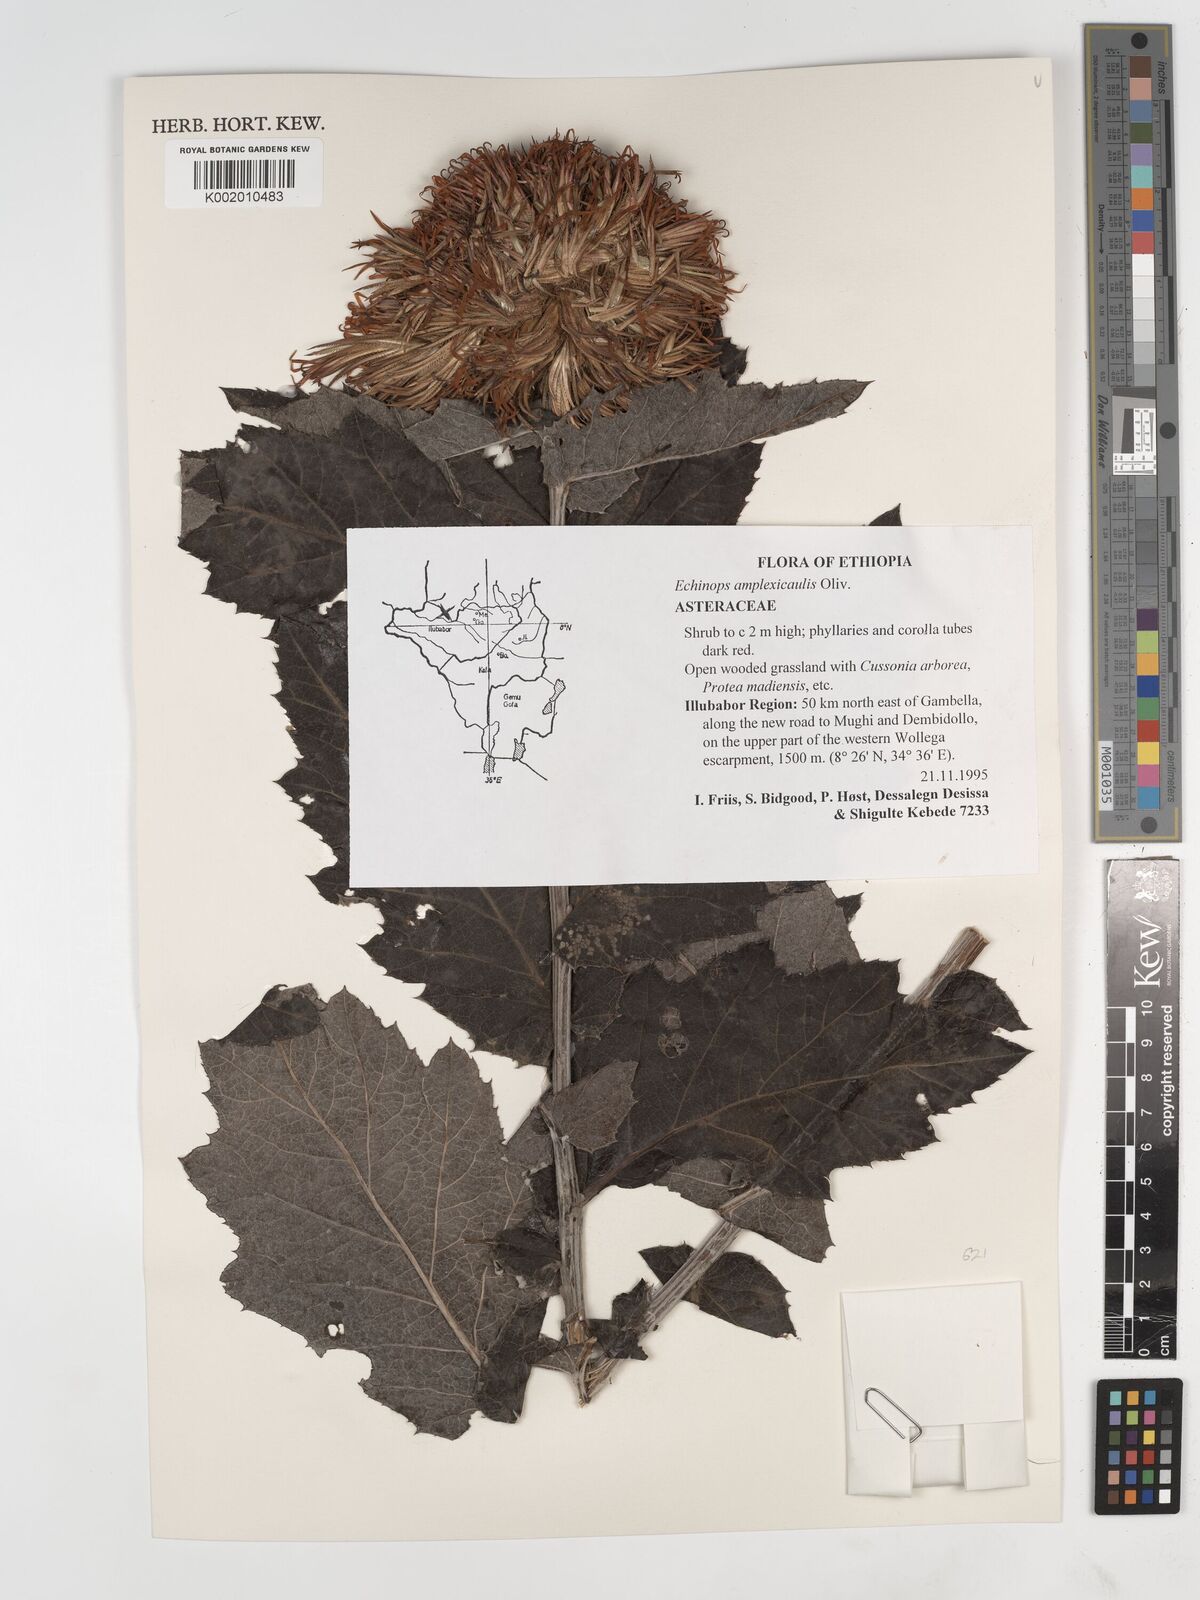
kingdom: Plantae
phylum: Tracheophyta
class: Magnoliopsida
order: Asterales
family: Asteraceae
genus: Echinops
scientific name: Echinops amplexicaulis
